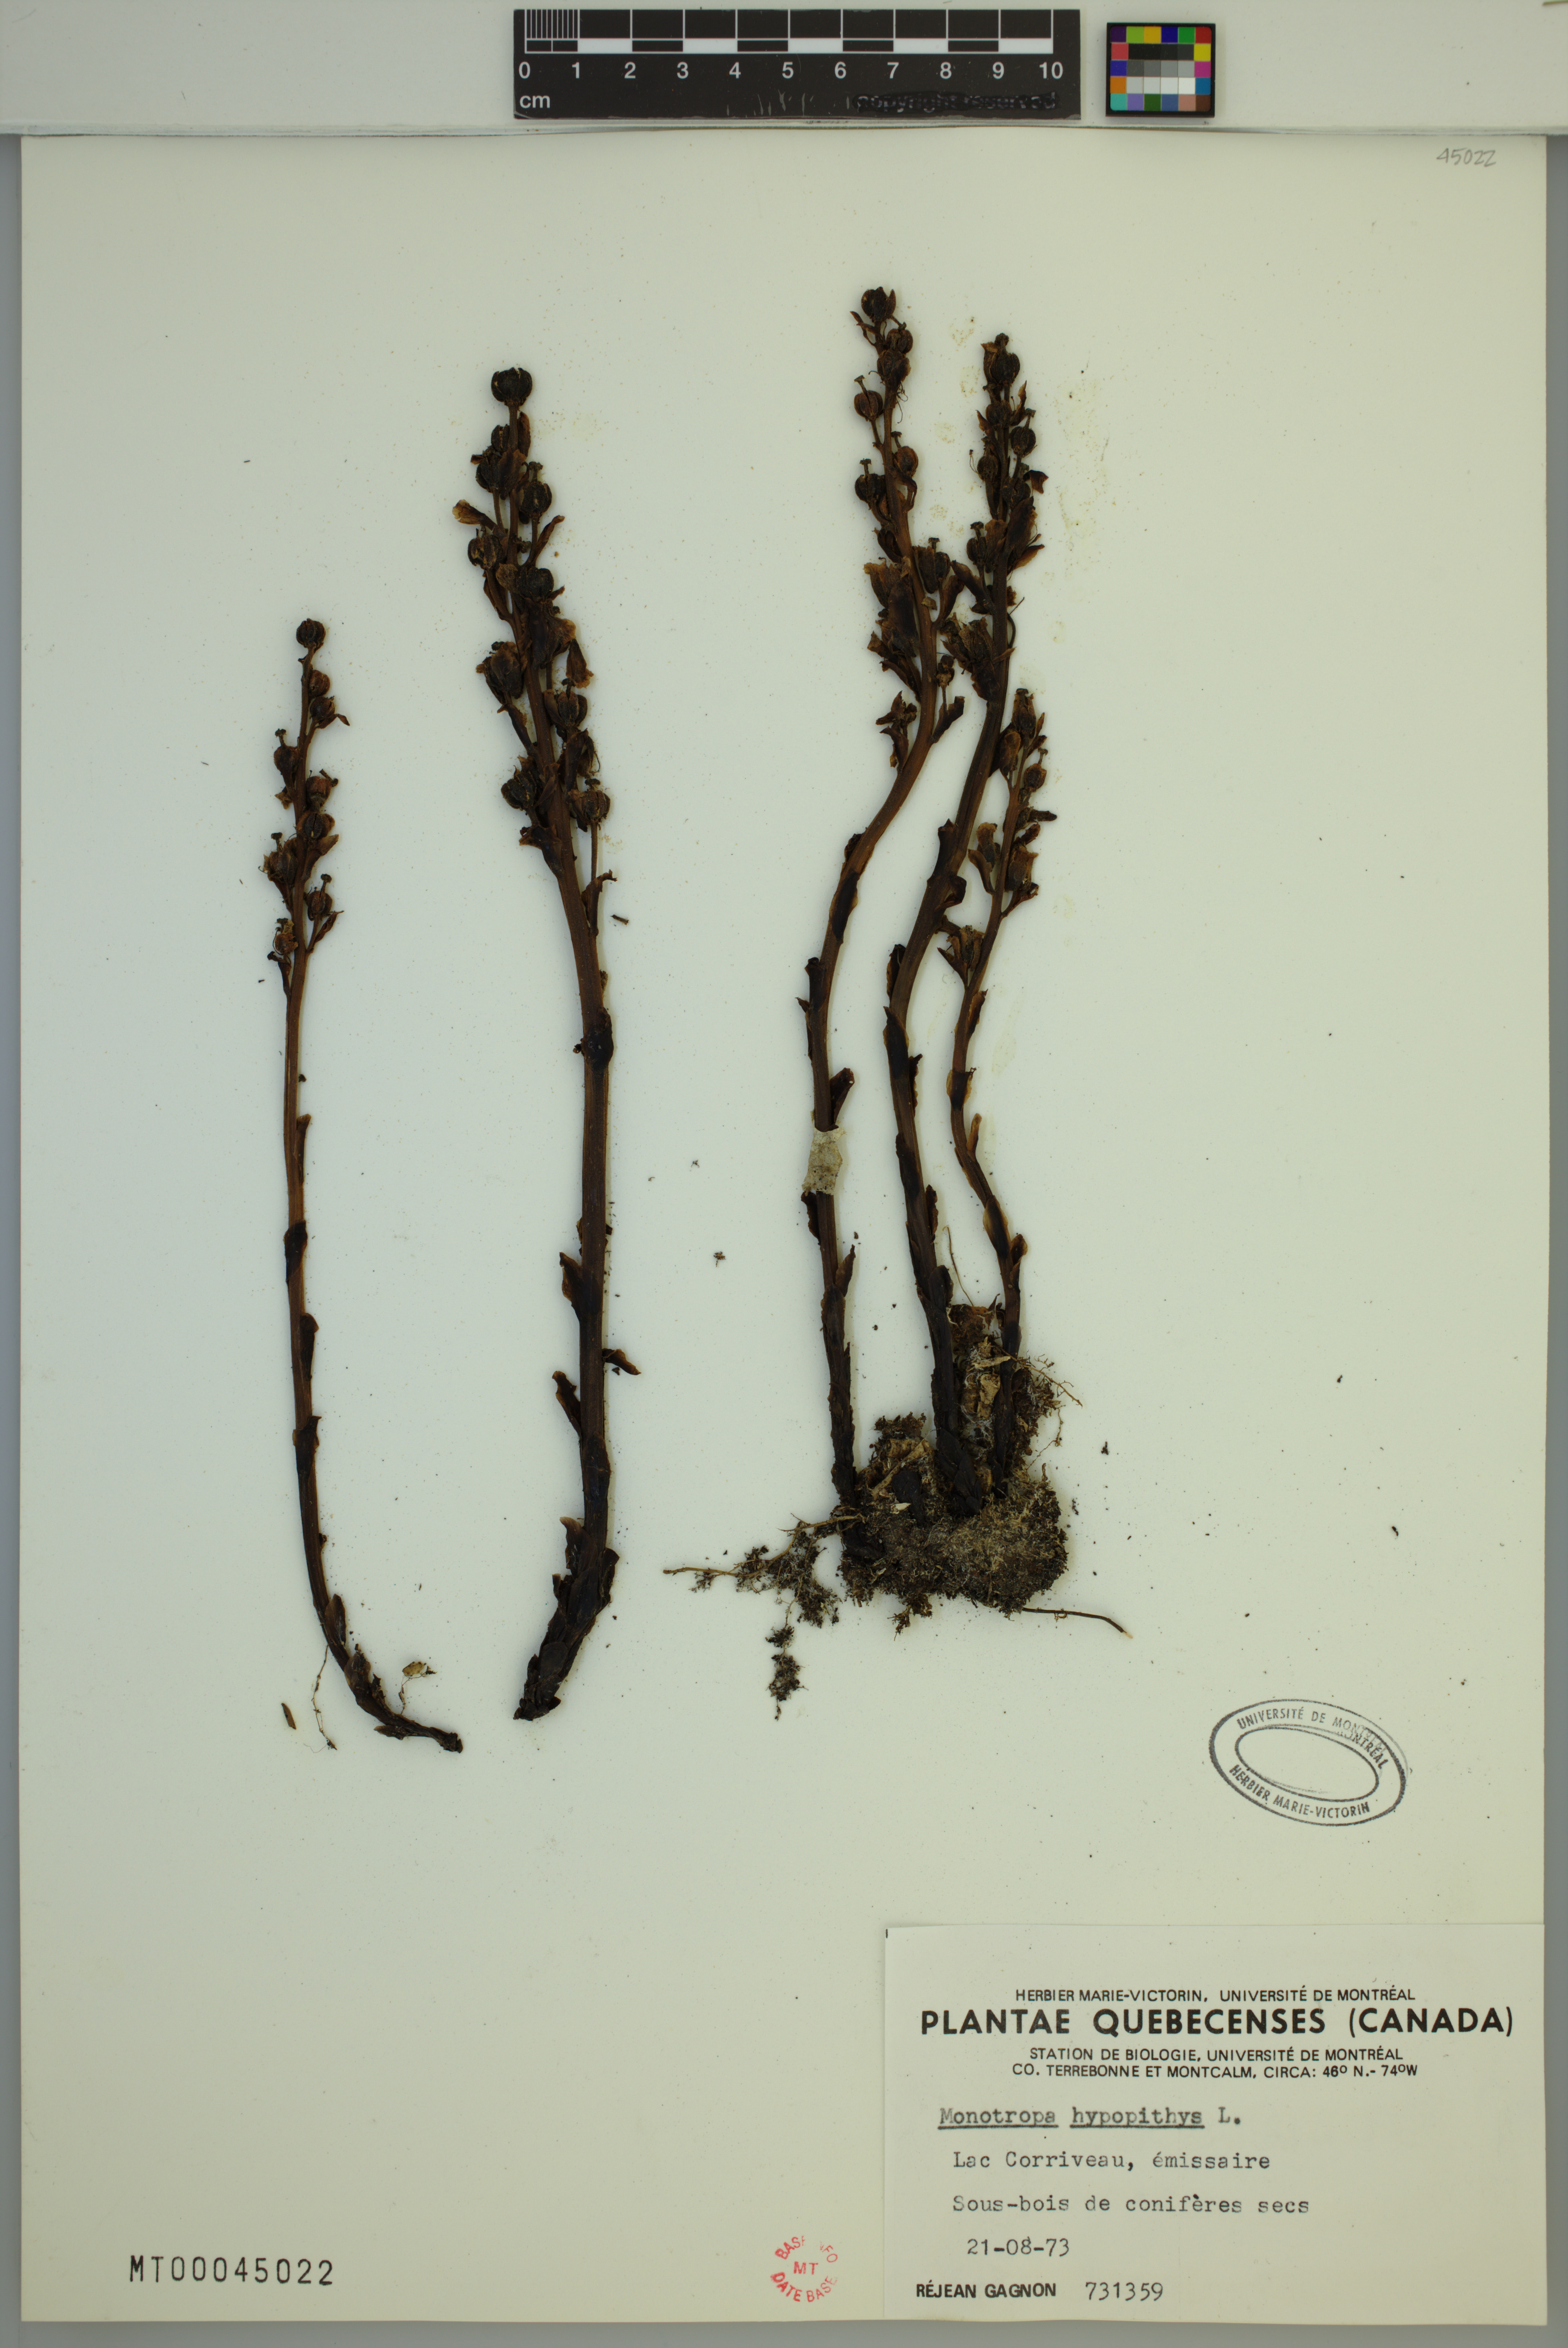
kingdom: Plantae
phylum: Tracheophyta
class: Magnoliopsida
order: Ericales
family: Ericaceae
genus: Hypopitys
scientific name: Hypopitys monotropa
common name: Yellow bird's-nest
